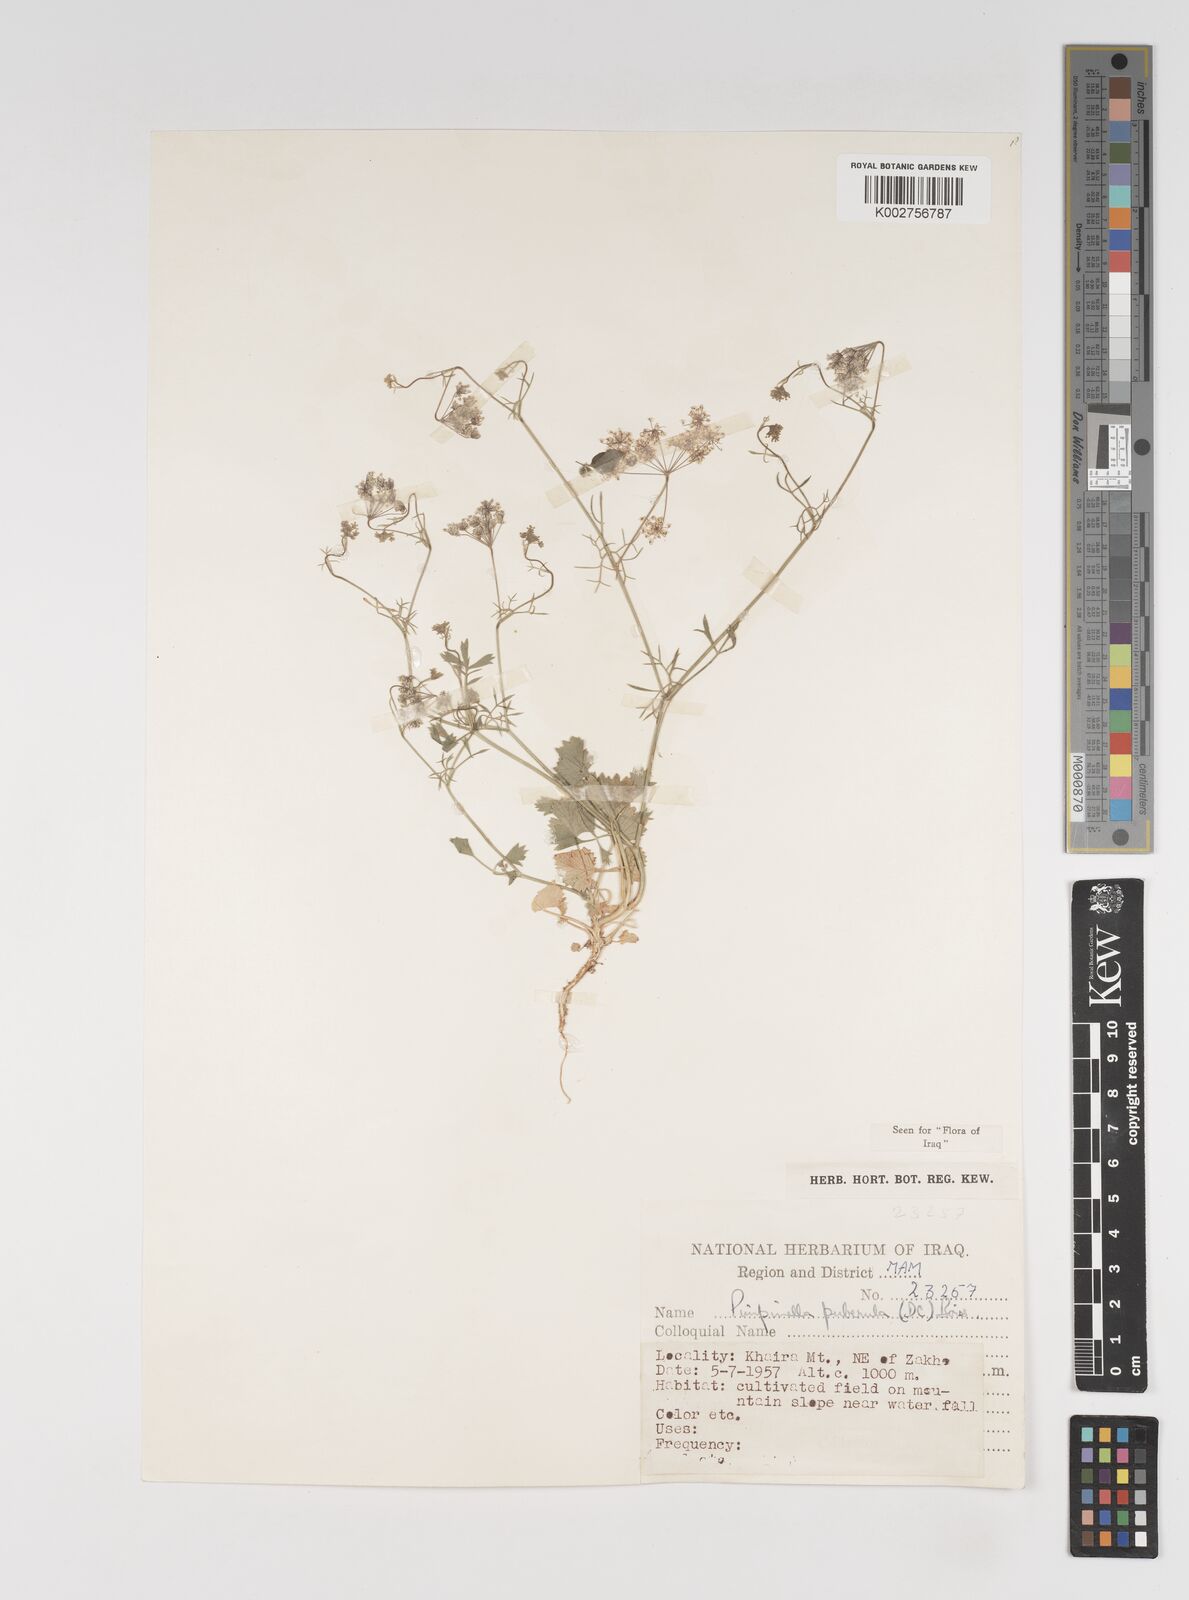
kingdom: Plantae
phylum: Tracheophyta
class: Magnoliopsida
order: Apiales
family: Apiaceae
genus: Pimpinella
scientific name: Pimpinella puberula
